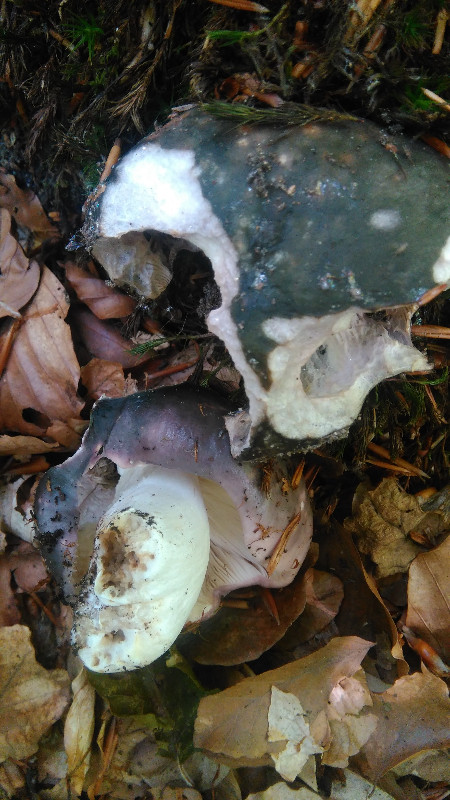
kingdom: Fungi
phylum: Basidiomycota
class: Agaricomycetes
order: Russulales
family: Russulaceae
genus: Russula
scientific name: Russula cyanoxantha
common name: broget skørhat
